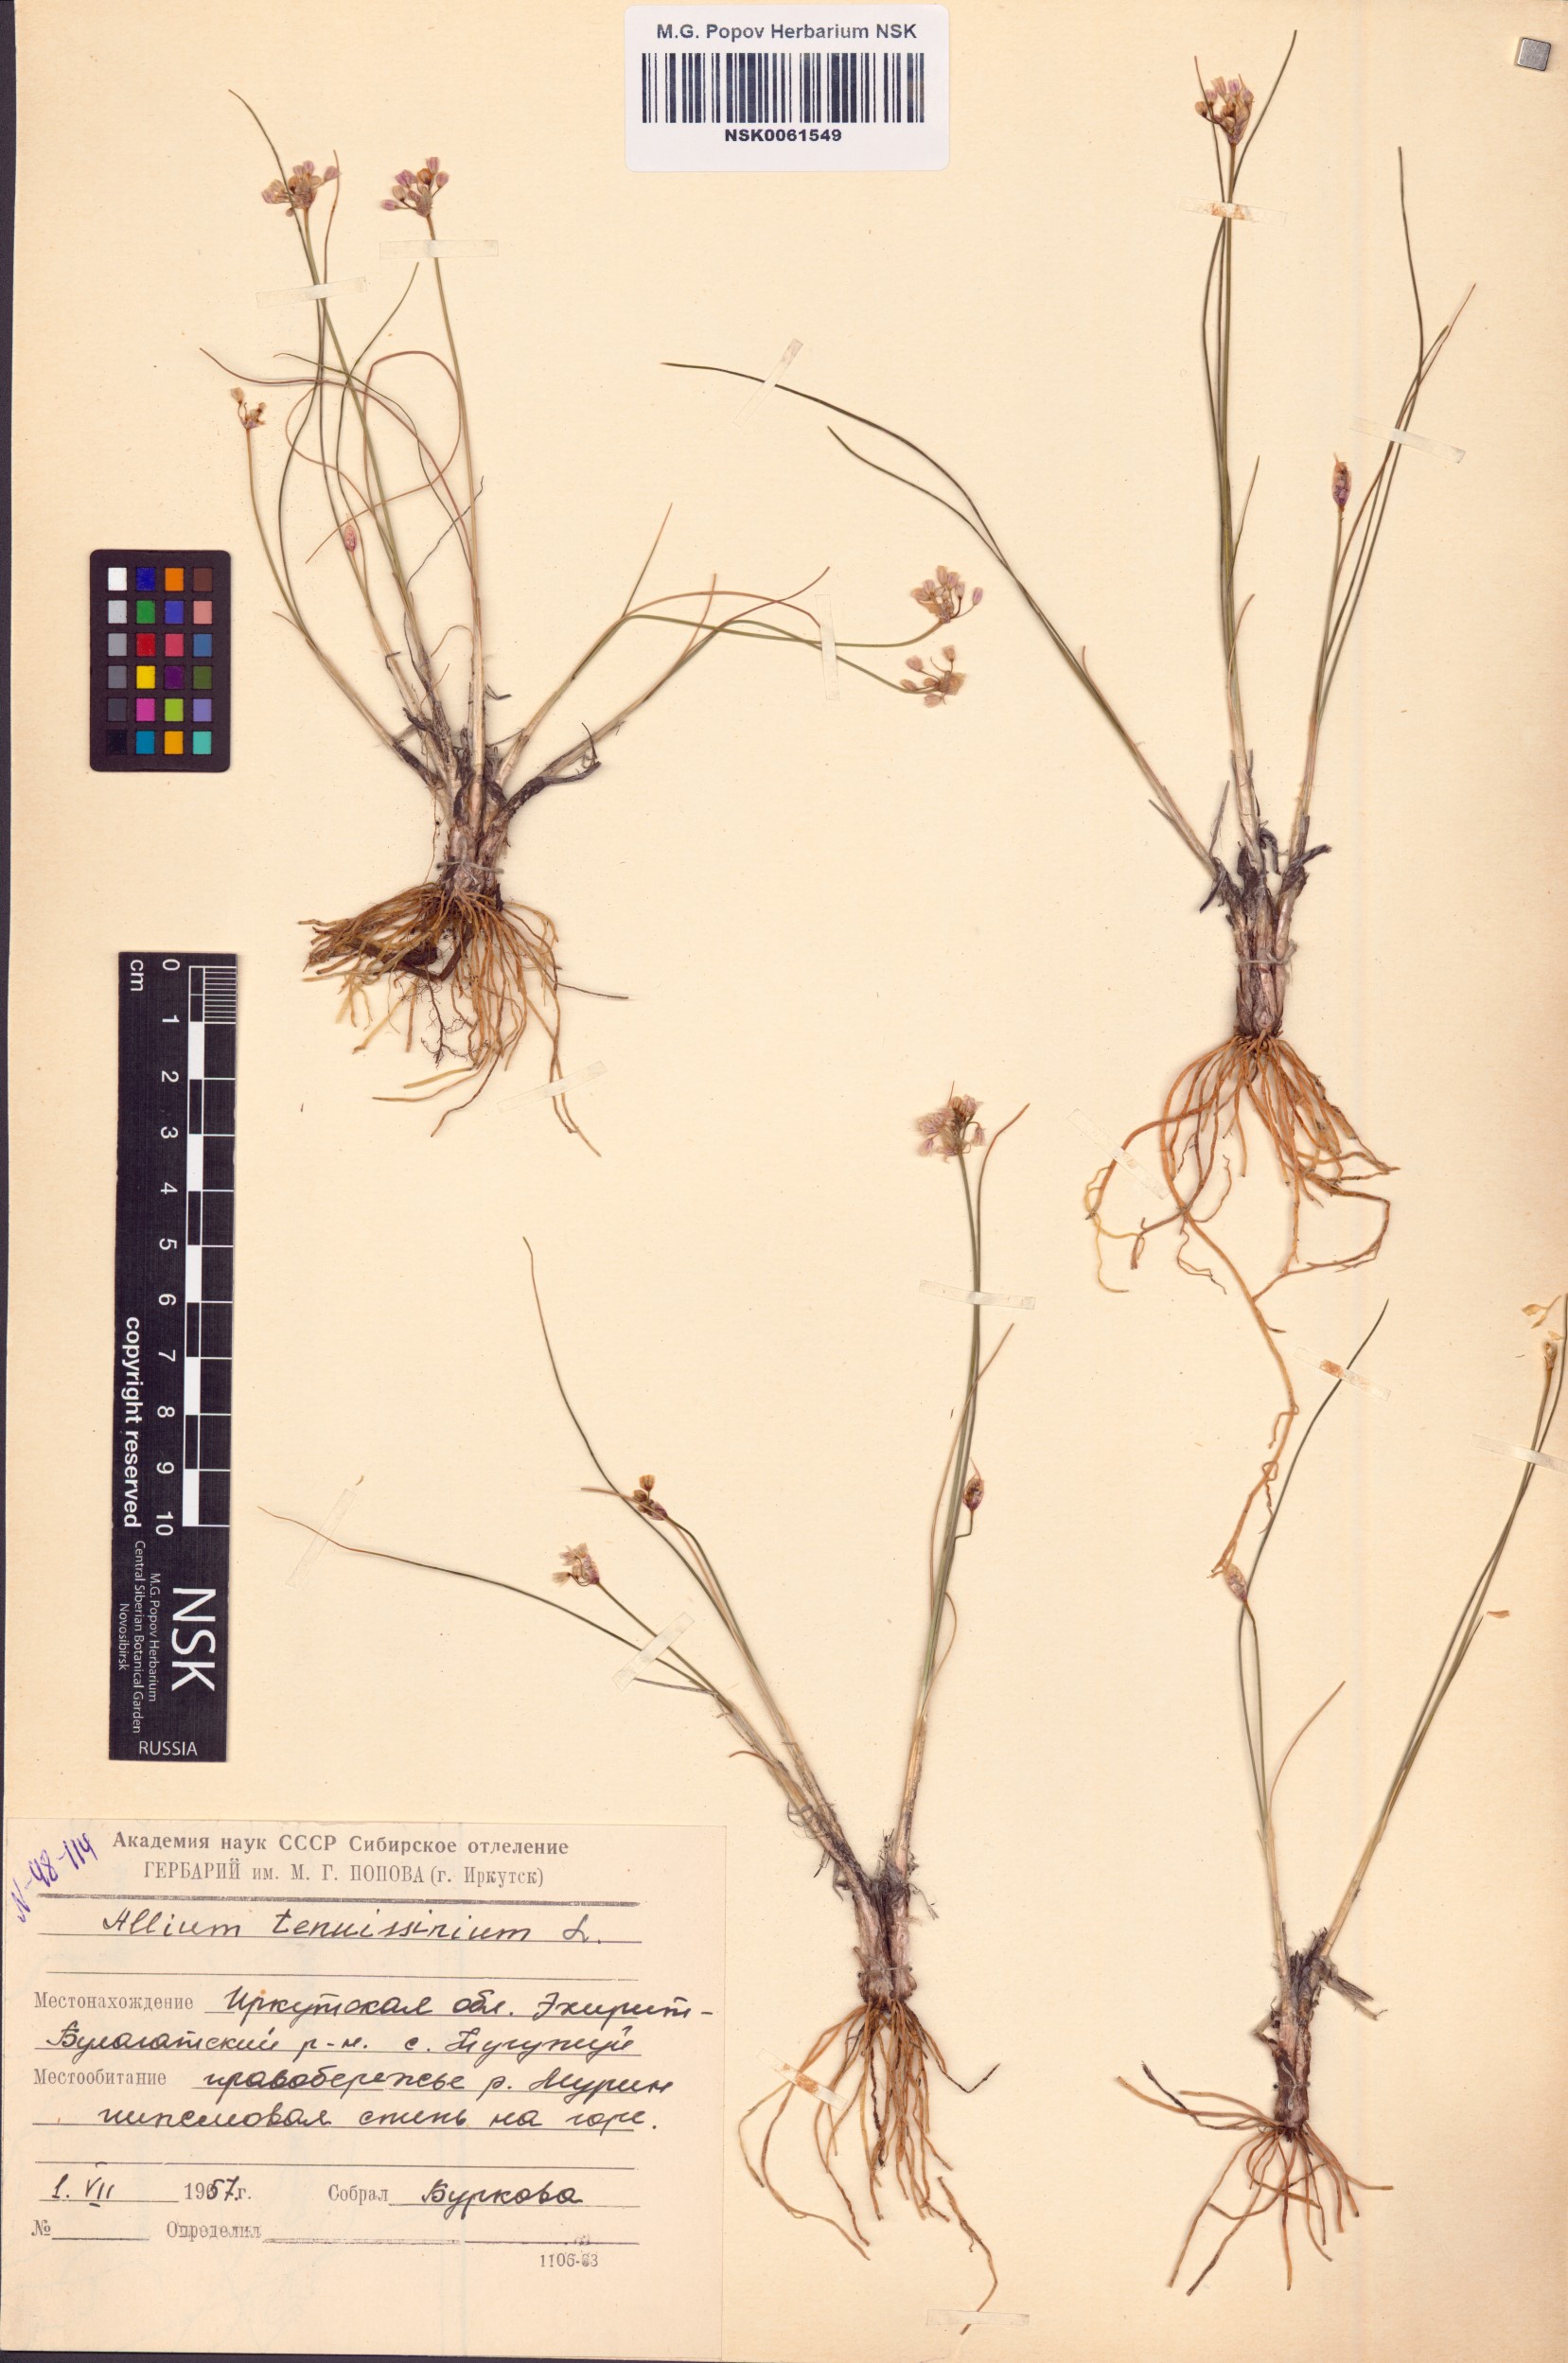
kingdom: Plantae
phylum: Tracheophyta
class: Liliopsida
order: Asparagales
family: Amaryllidaceae
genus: Allium
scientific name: Allium tenuissimum
